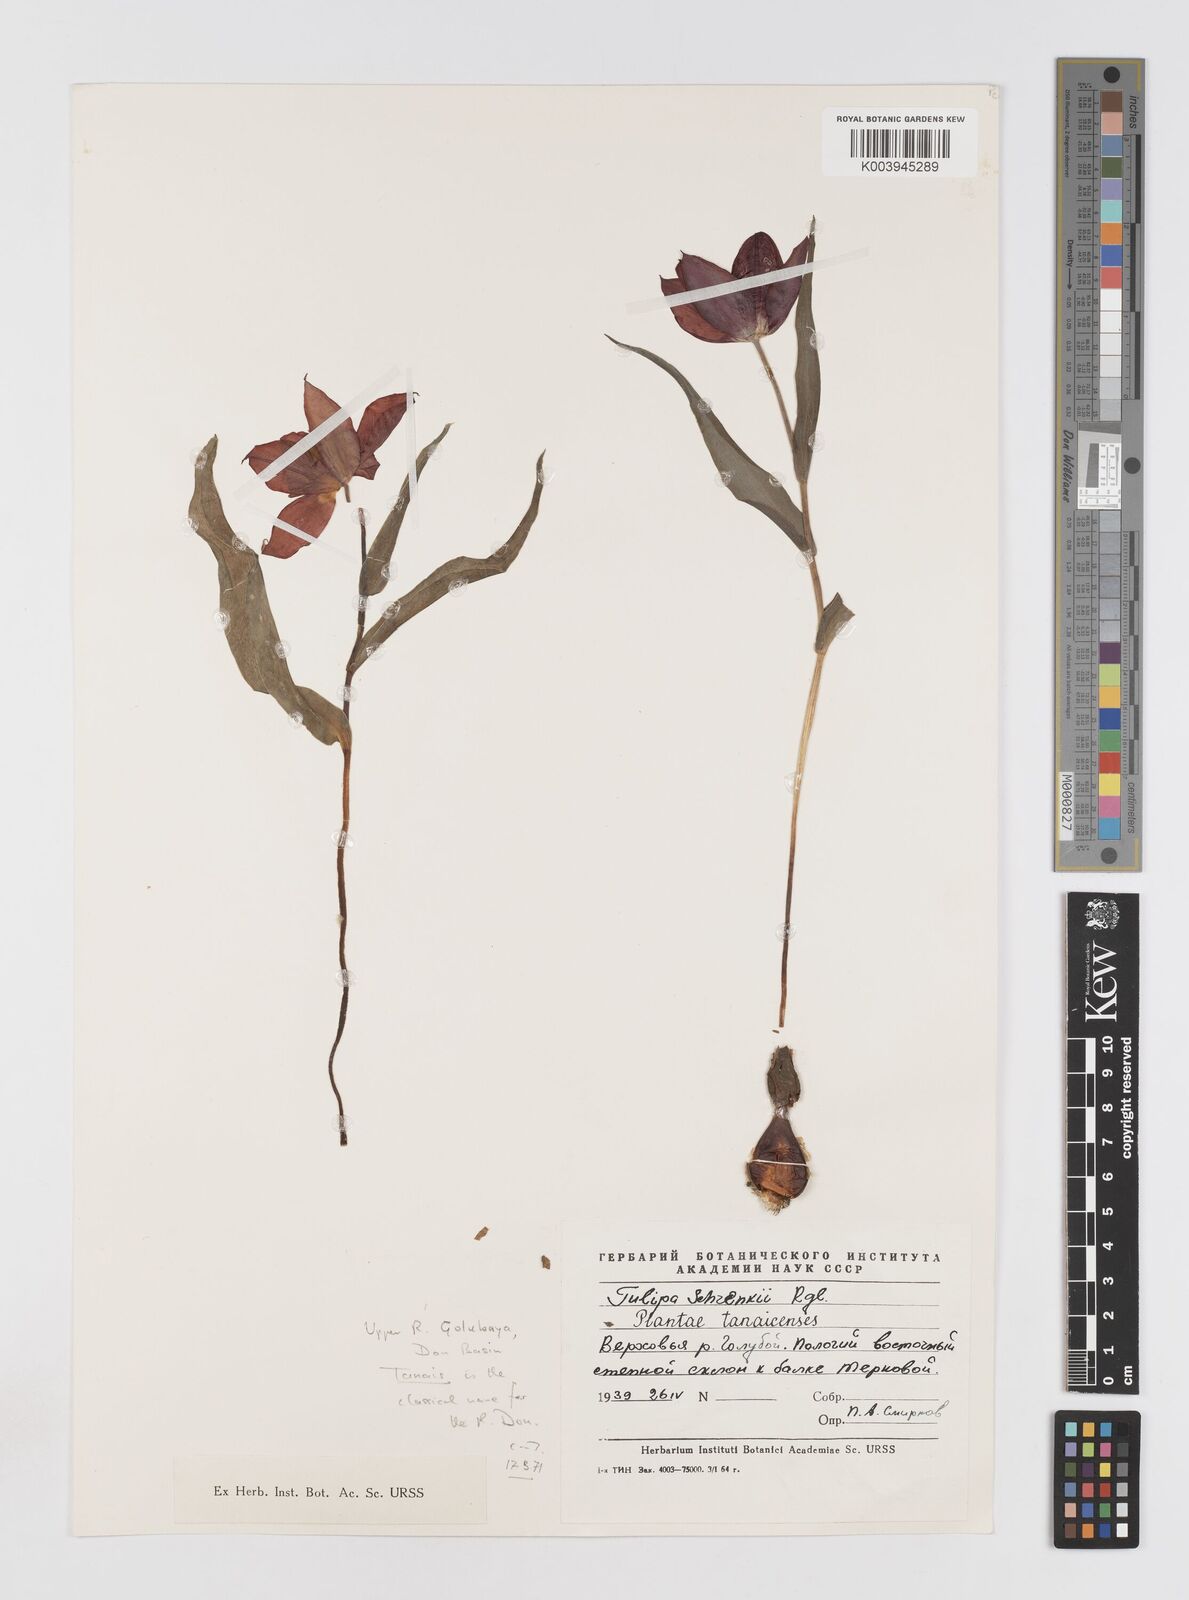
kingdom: Plantae
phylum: Tracheophyta
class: Liliopsida
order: Liliales
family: Liliaceae
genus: Tulipa
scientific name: Tulipa suaveolens
